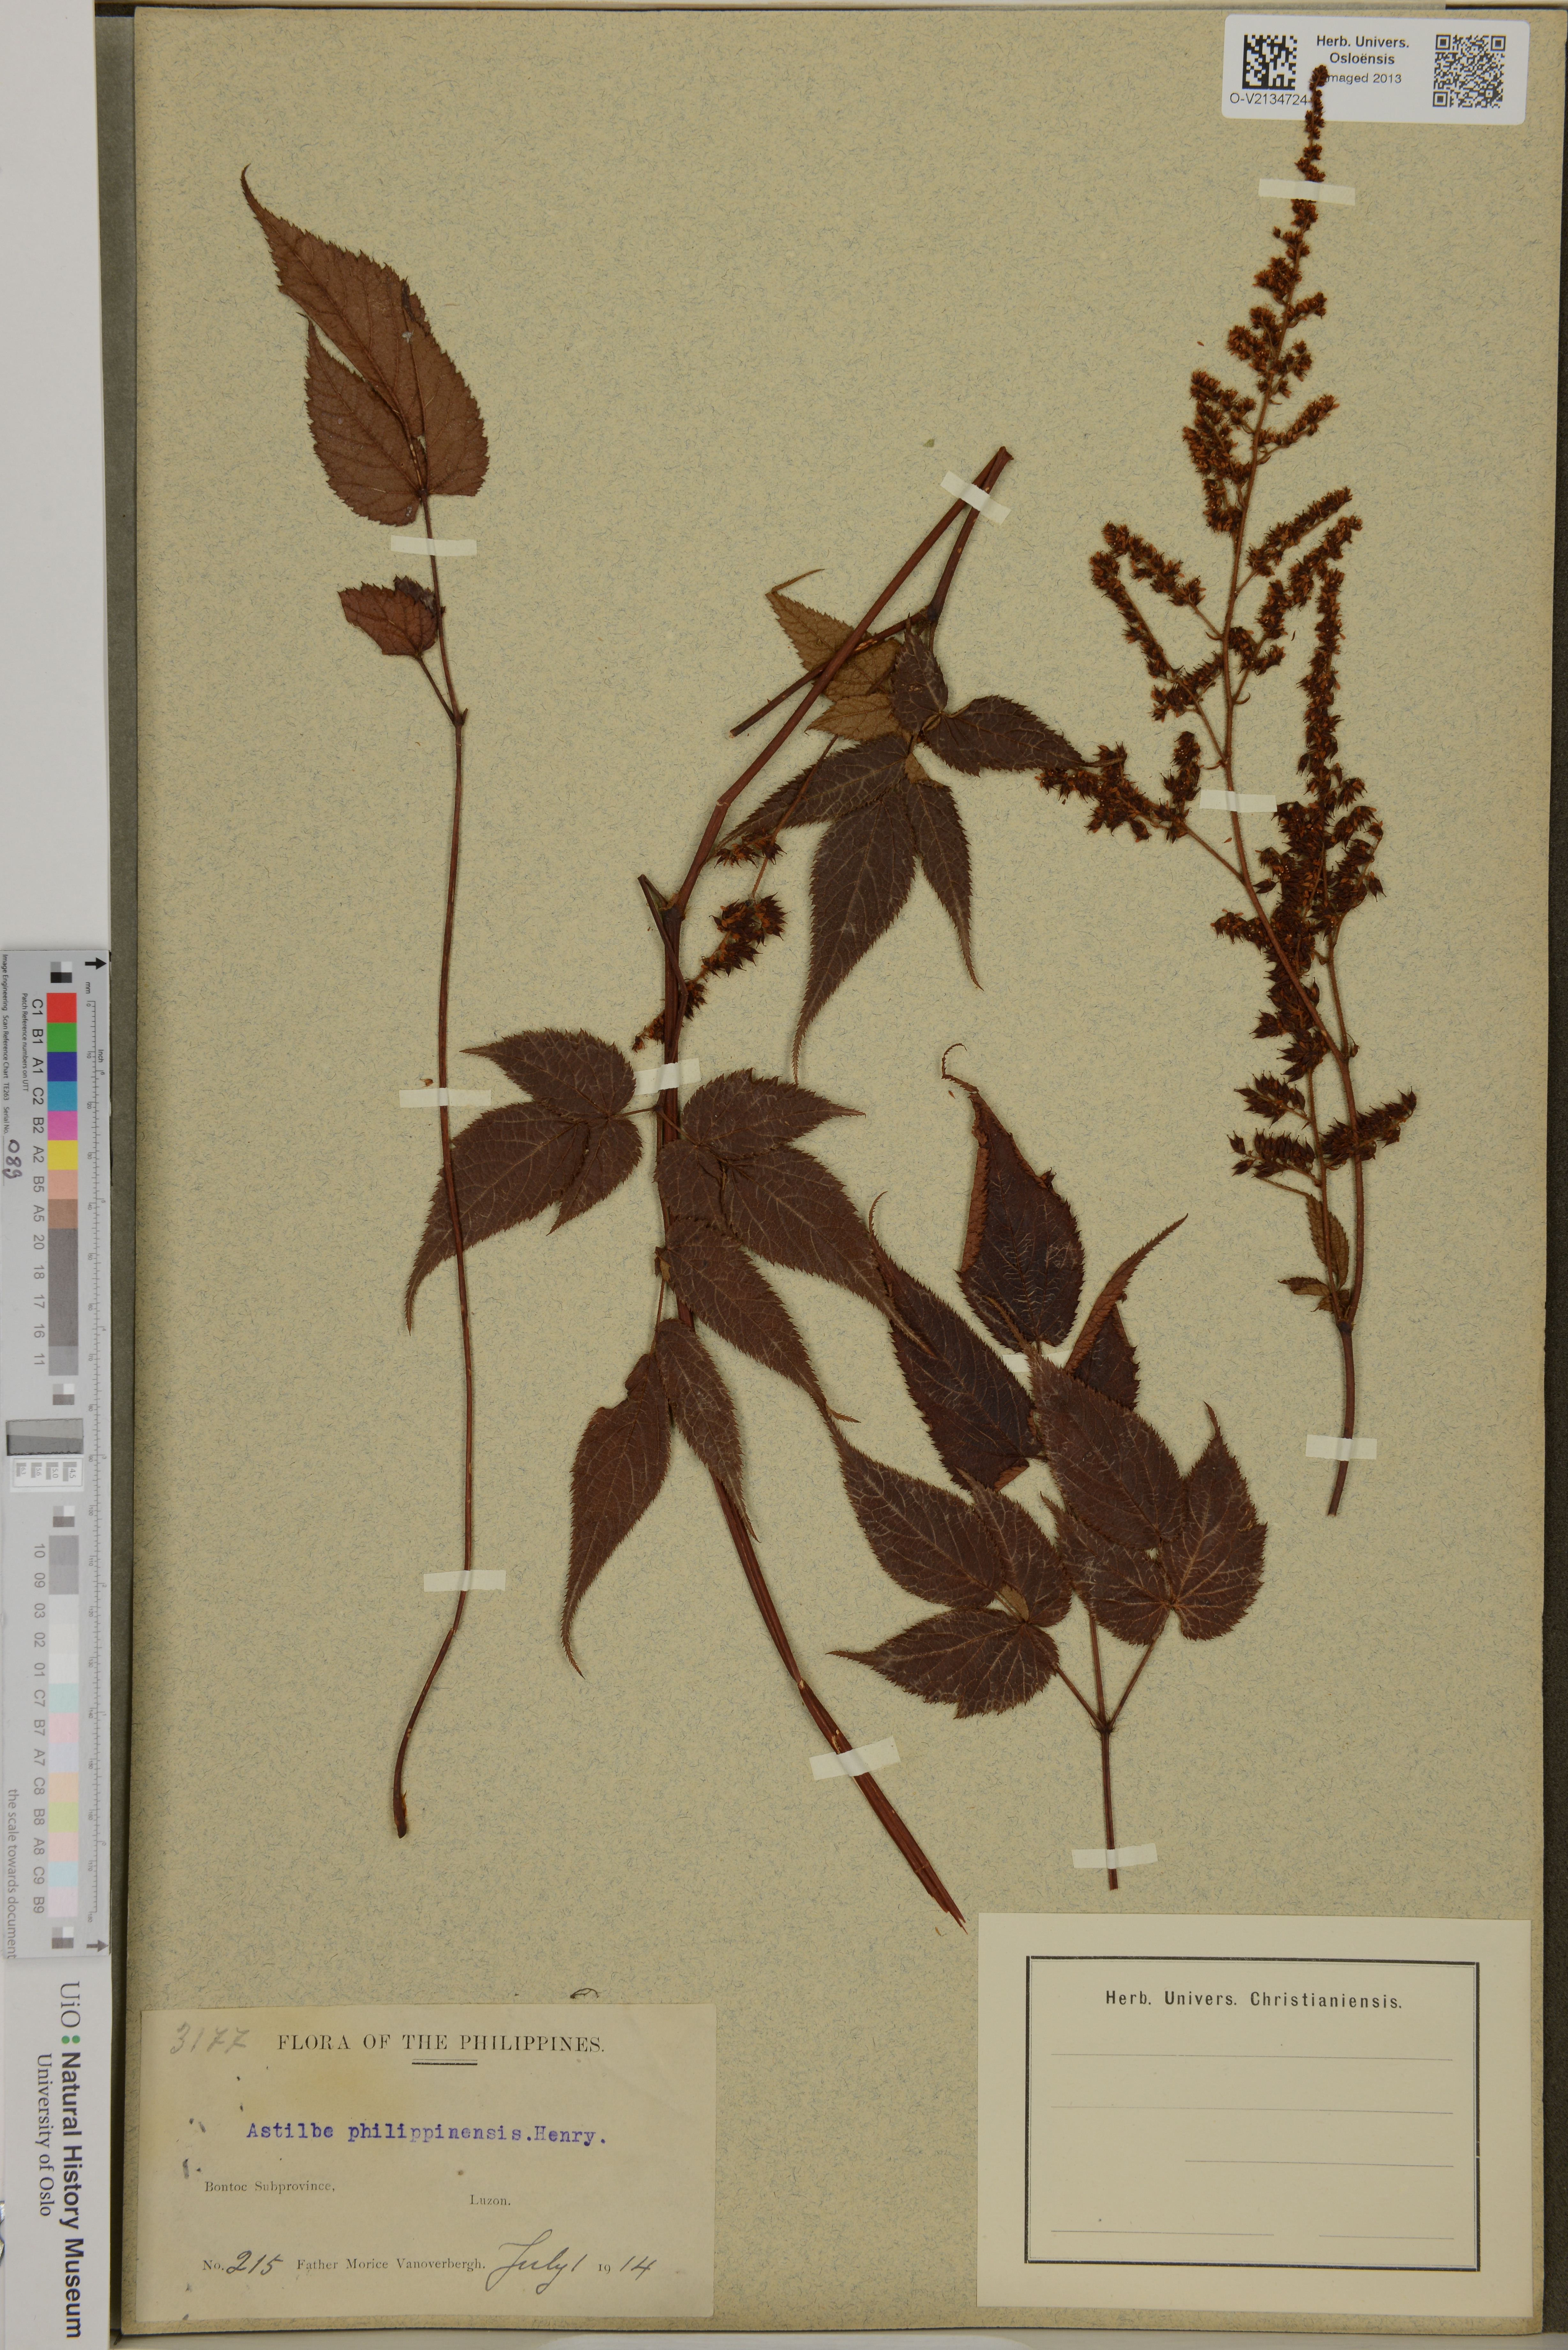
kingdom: Plantae
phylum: Tracheophyta
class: Magnoliopsida
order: Saxifragales
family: Saxifragaceae
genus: Astilbe
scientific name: Astilbe philippinensis
